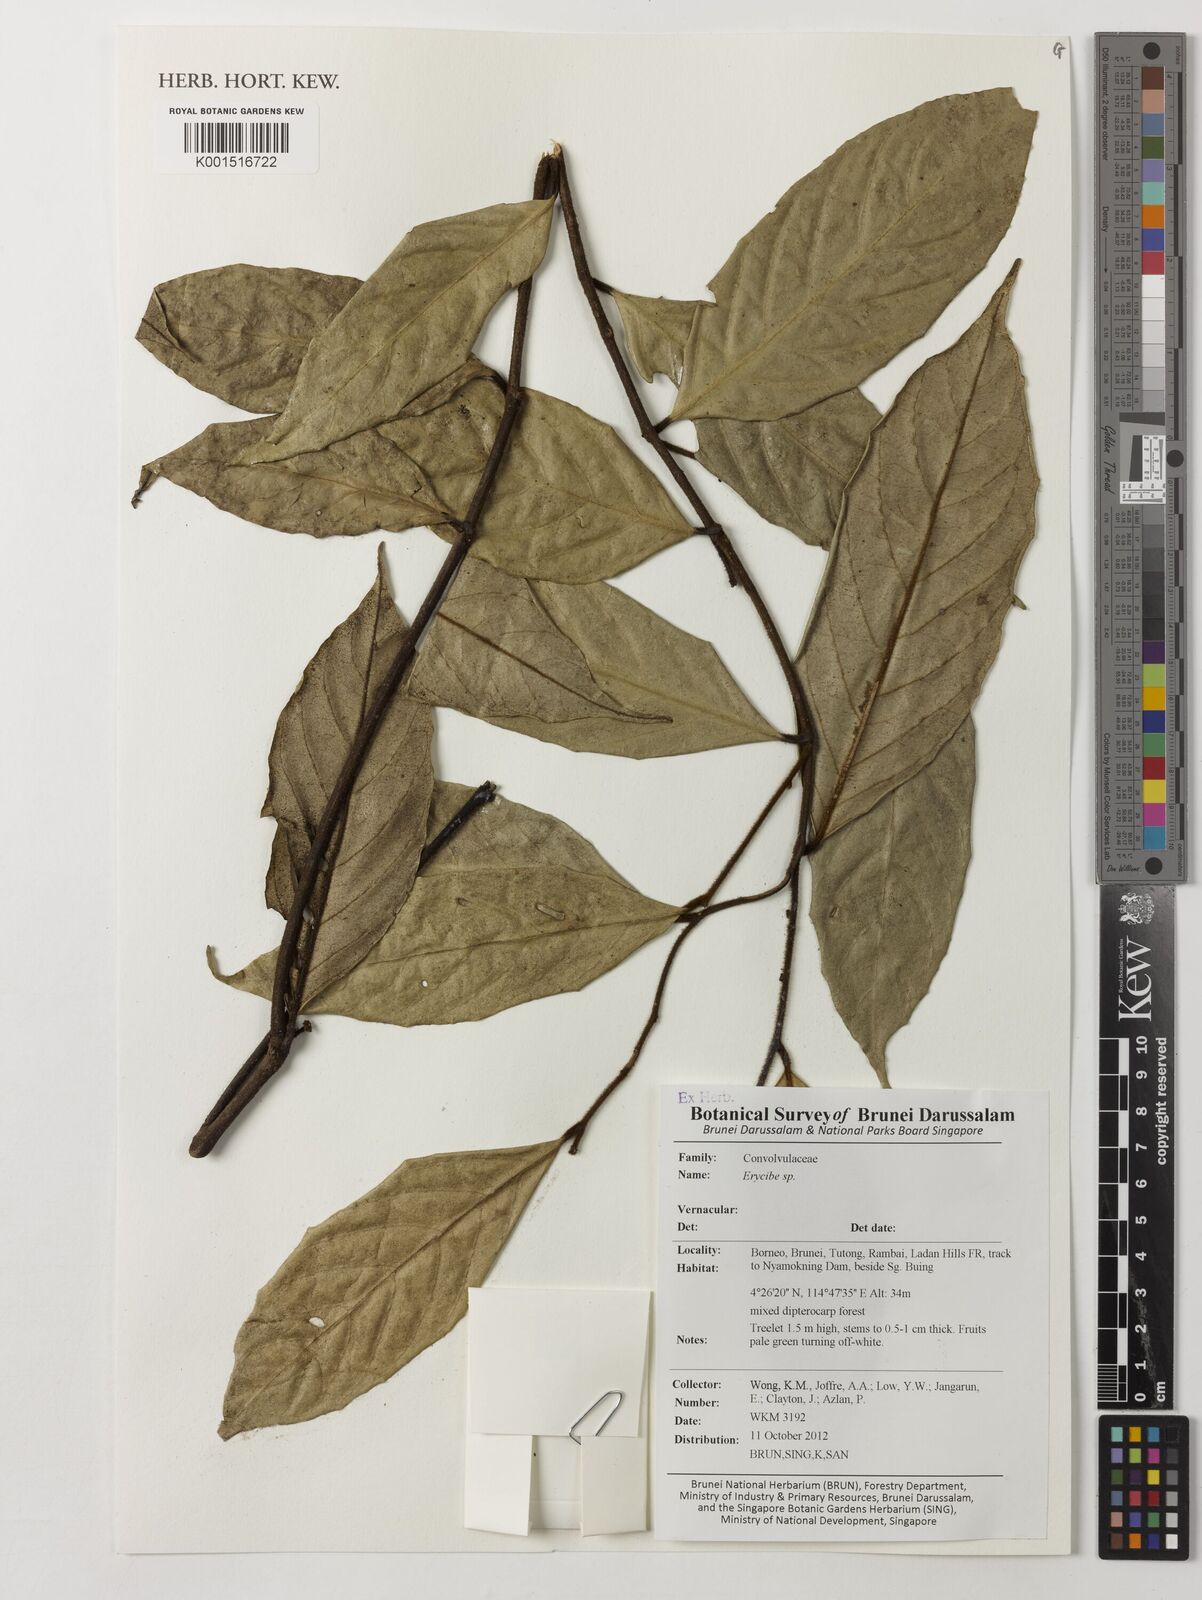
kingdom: Plantae
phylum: Tracheophyta
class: Magnoliopsida
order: Solanales
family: Convolvulaceae
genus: Erycibe
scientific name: Erycibe
